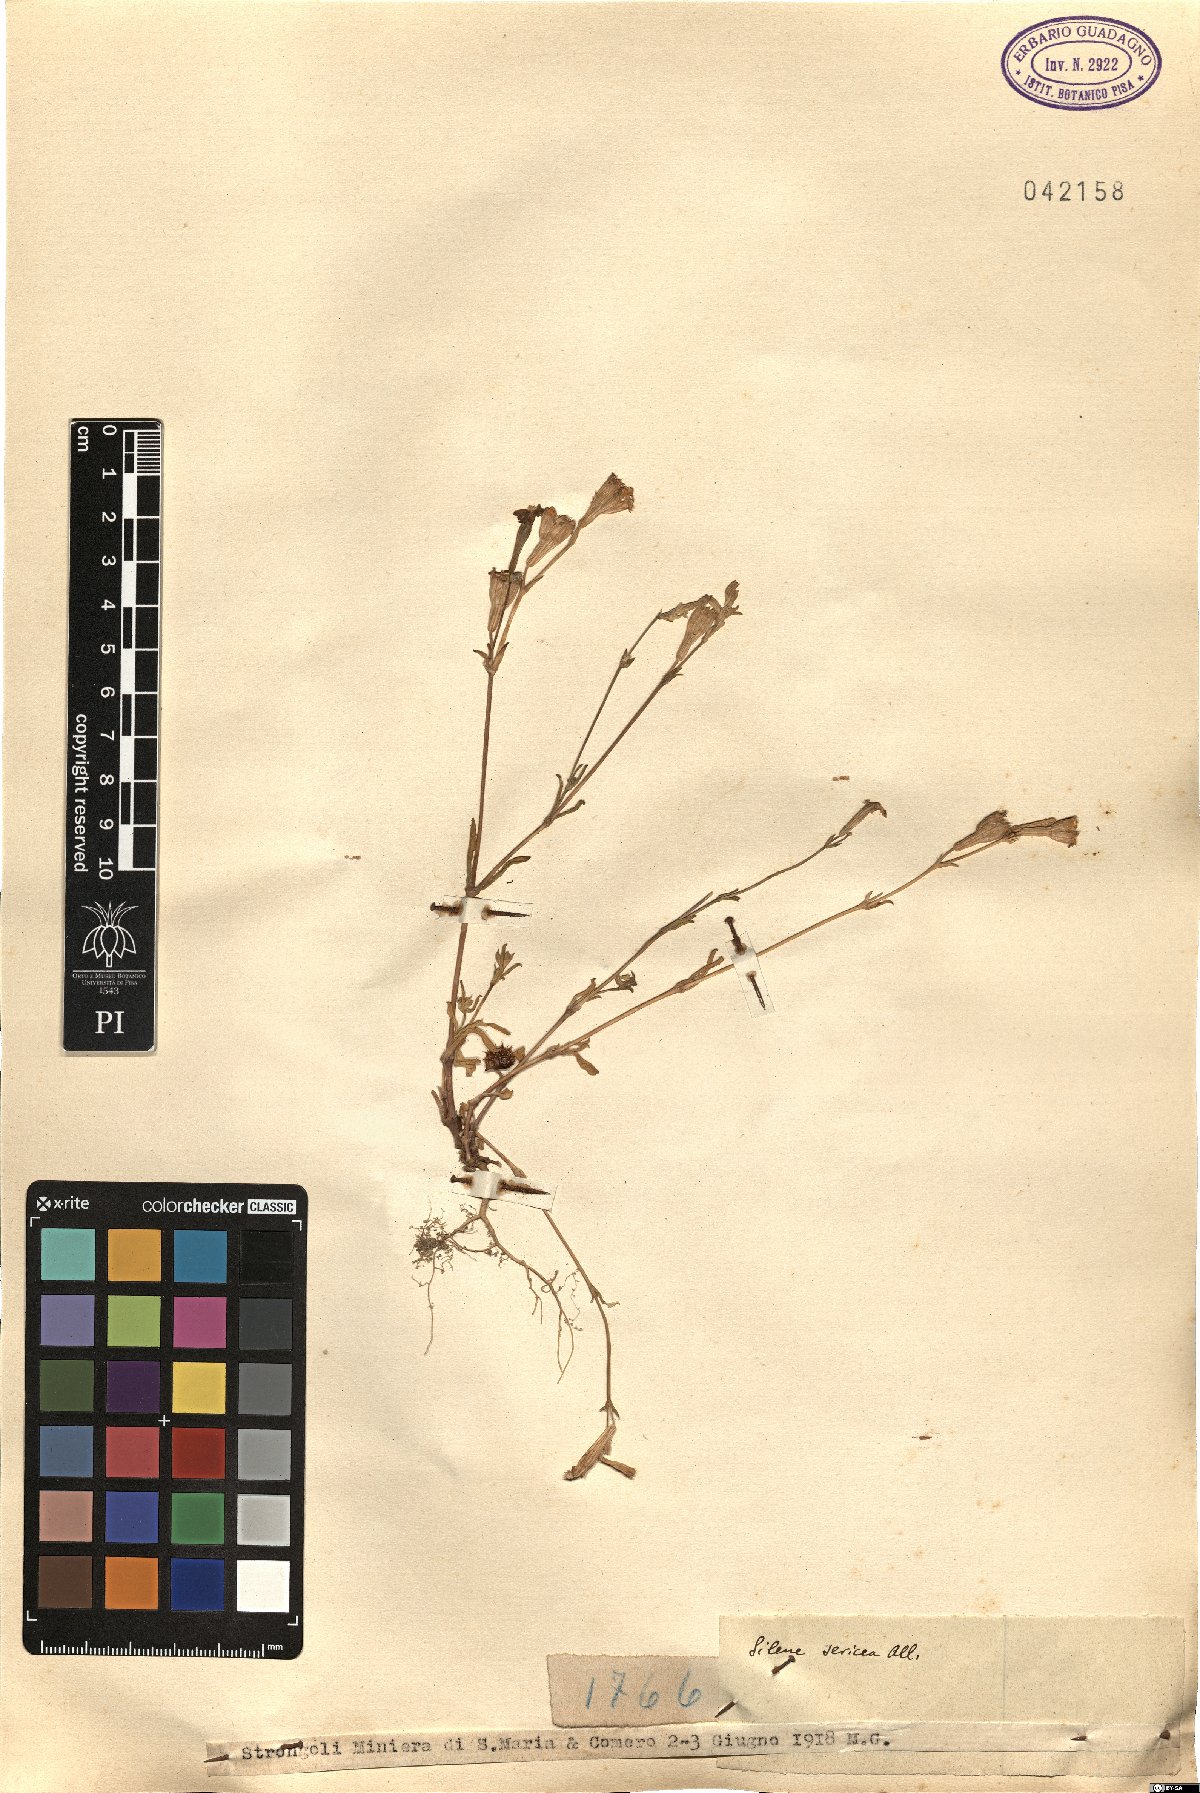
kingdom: Plantae
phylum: Tracheophyta
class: Magnoliopsida
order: Caryophyllales
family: Caryophyllaceae
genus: Silene
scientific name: Silene sericea
